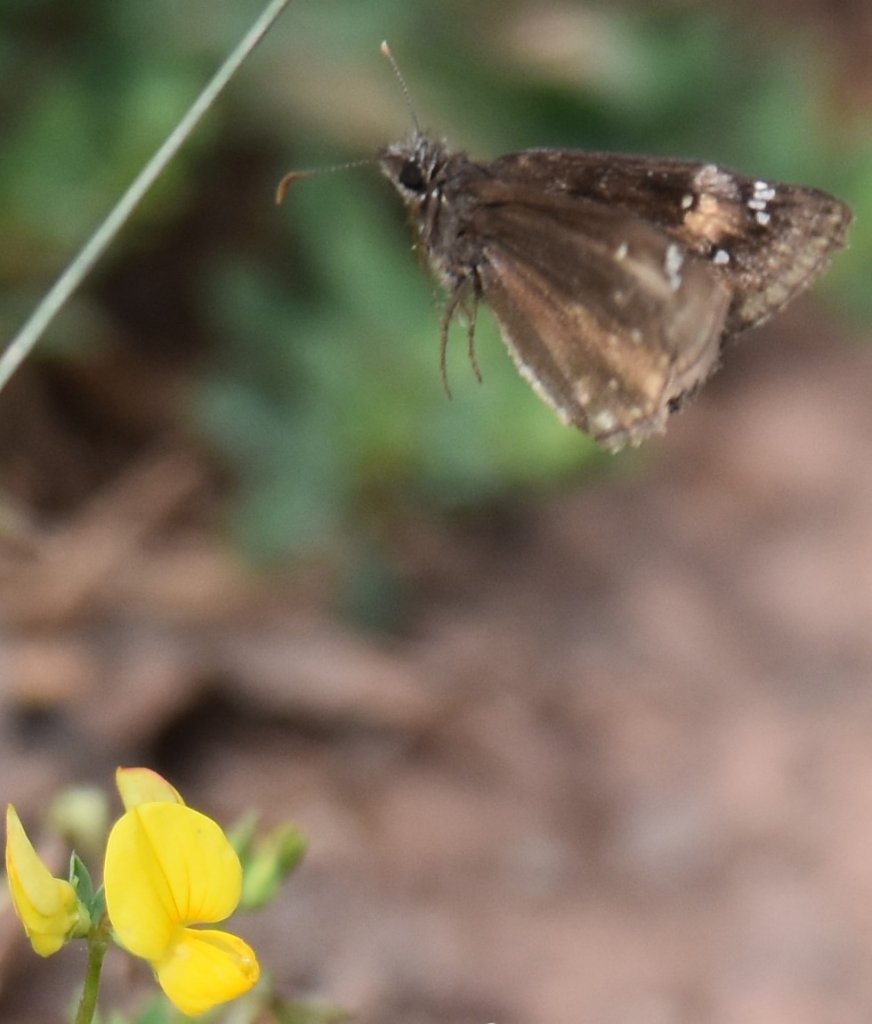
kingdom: Animalia
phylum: Arthropoda
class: Insecta
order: Lepidoptera
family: Hesperiidae
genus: Gesta
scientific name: Gesta
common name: Wild Indigo Duskywing
